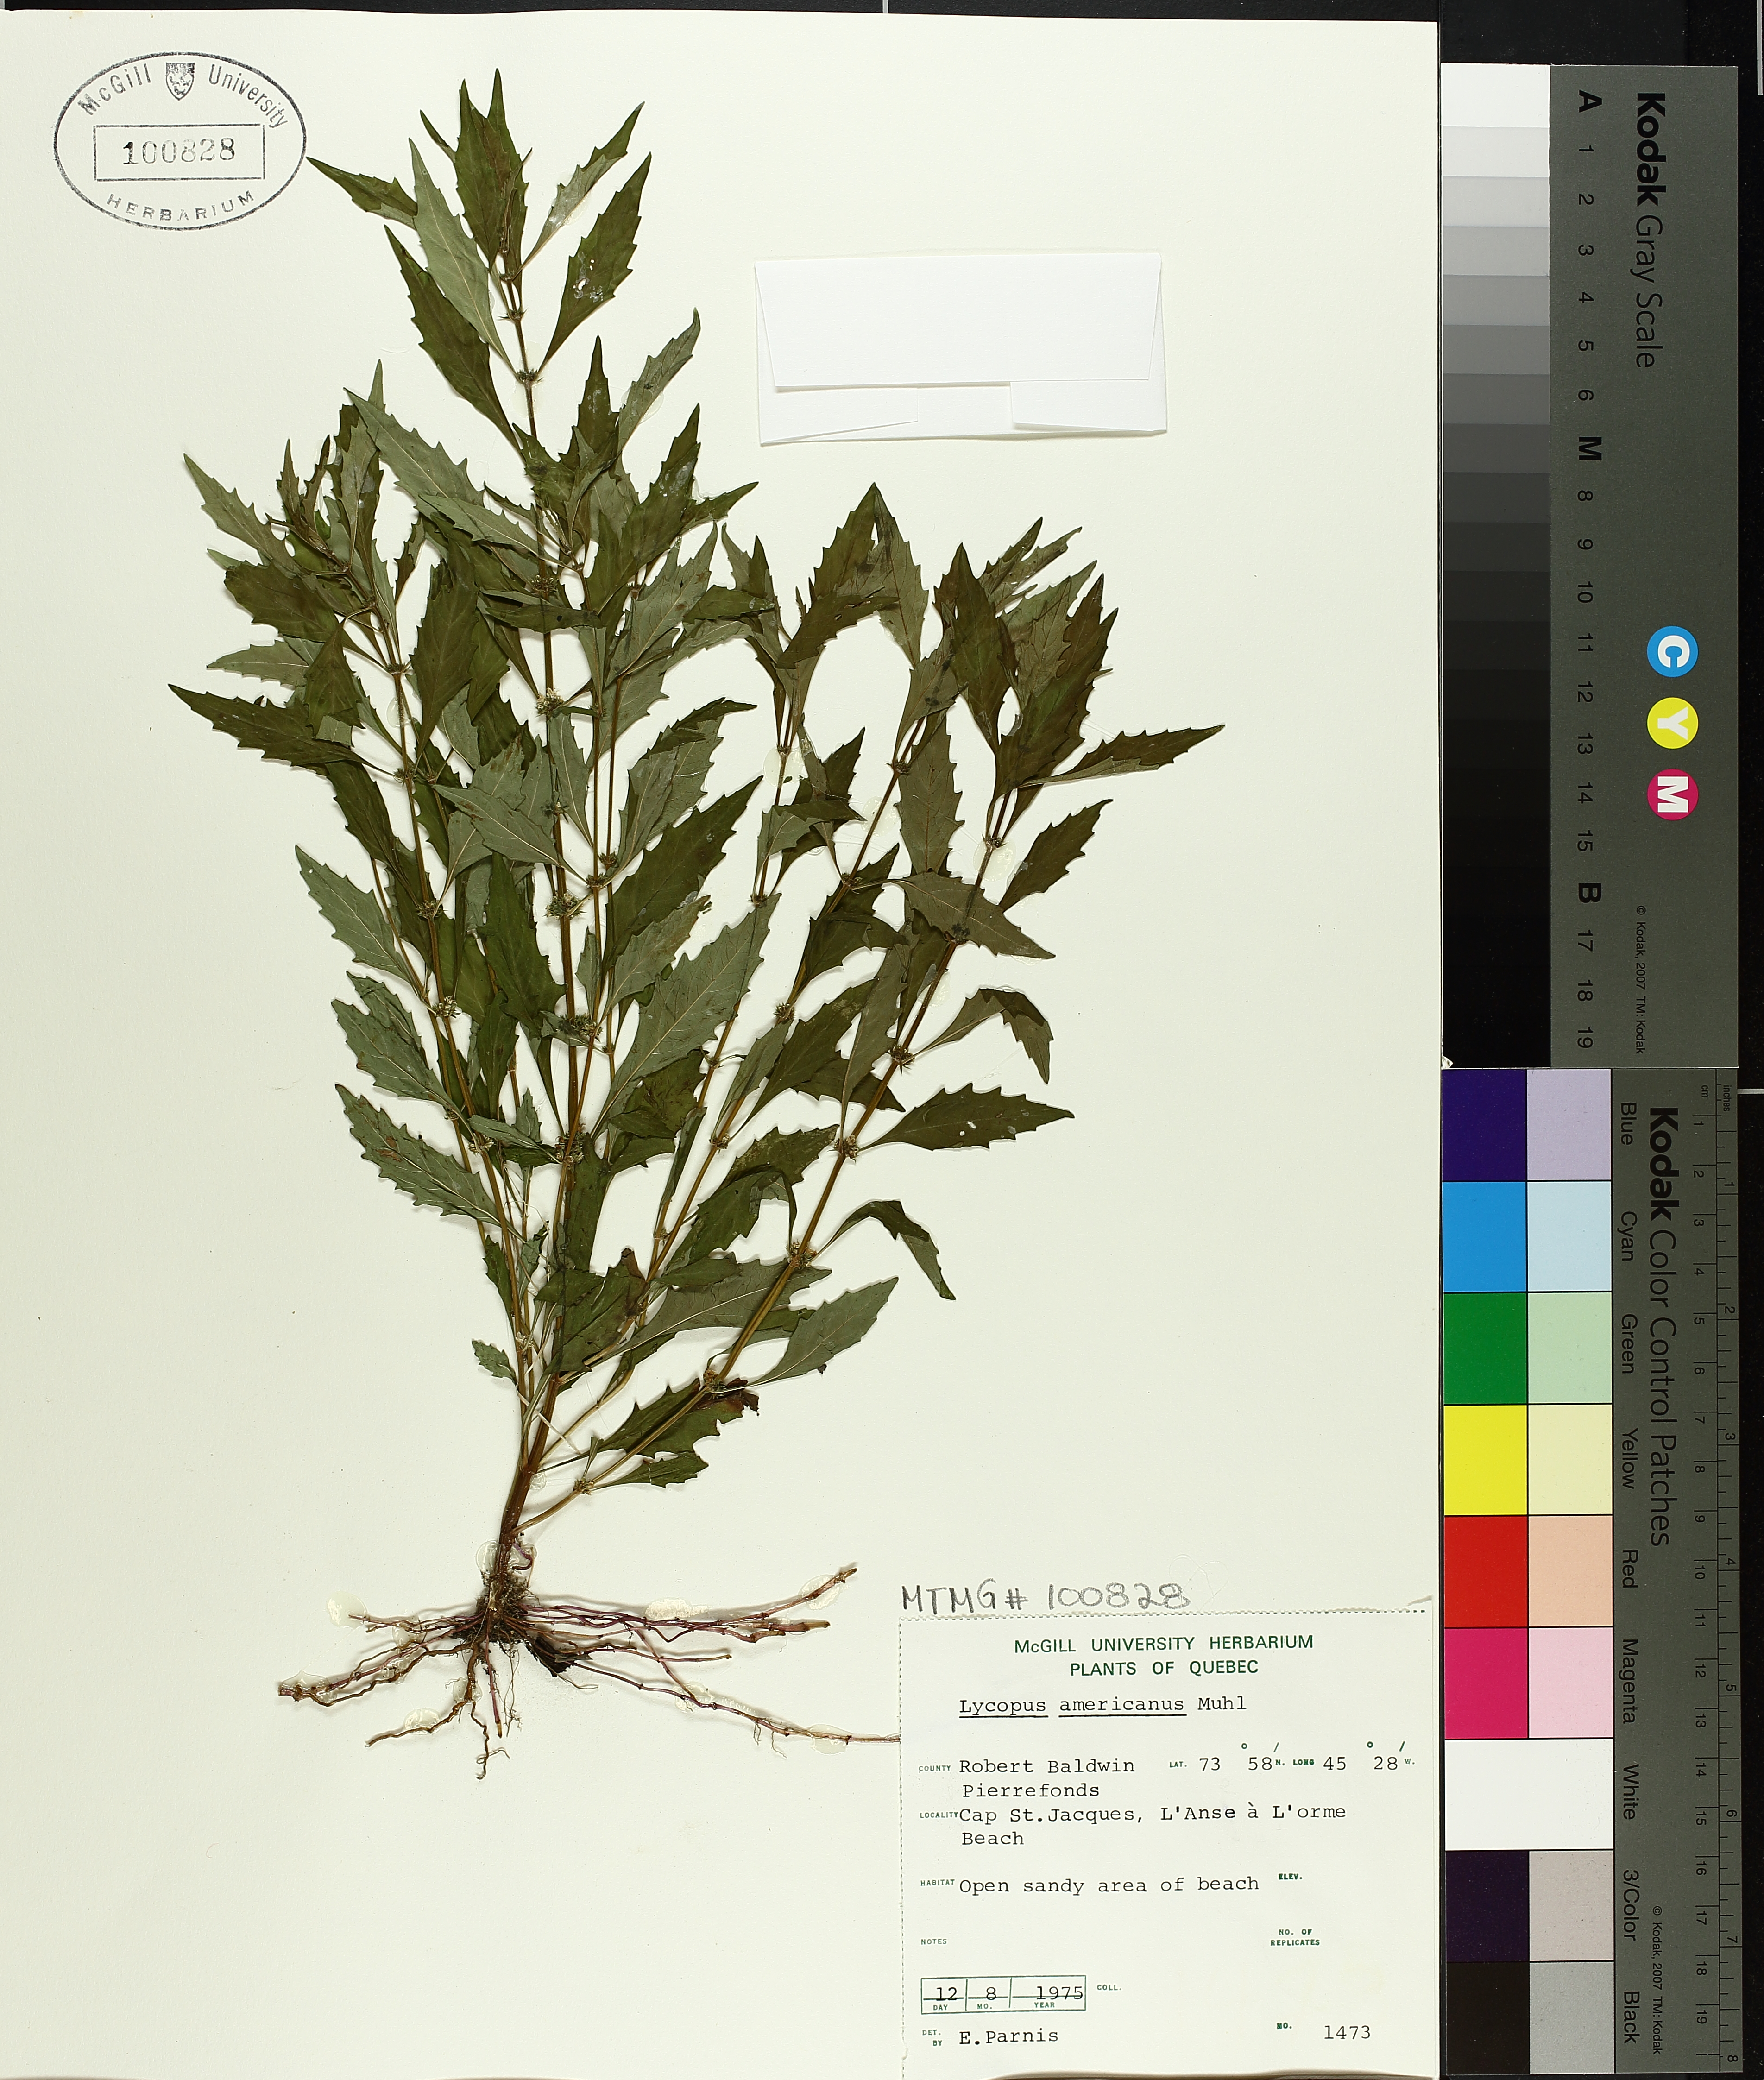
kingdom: Plantae
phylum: Tracheophyta
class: Magnoliopsida
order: Lamiales
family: Lamiaceae
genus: Lycopus
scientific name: Lycopus americanus
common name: American bugleweed
